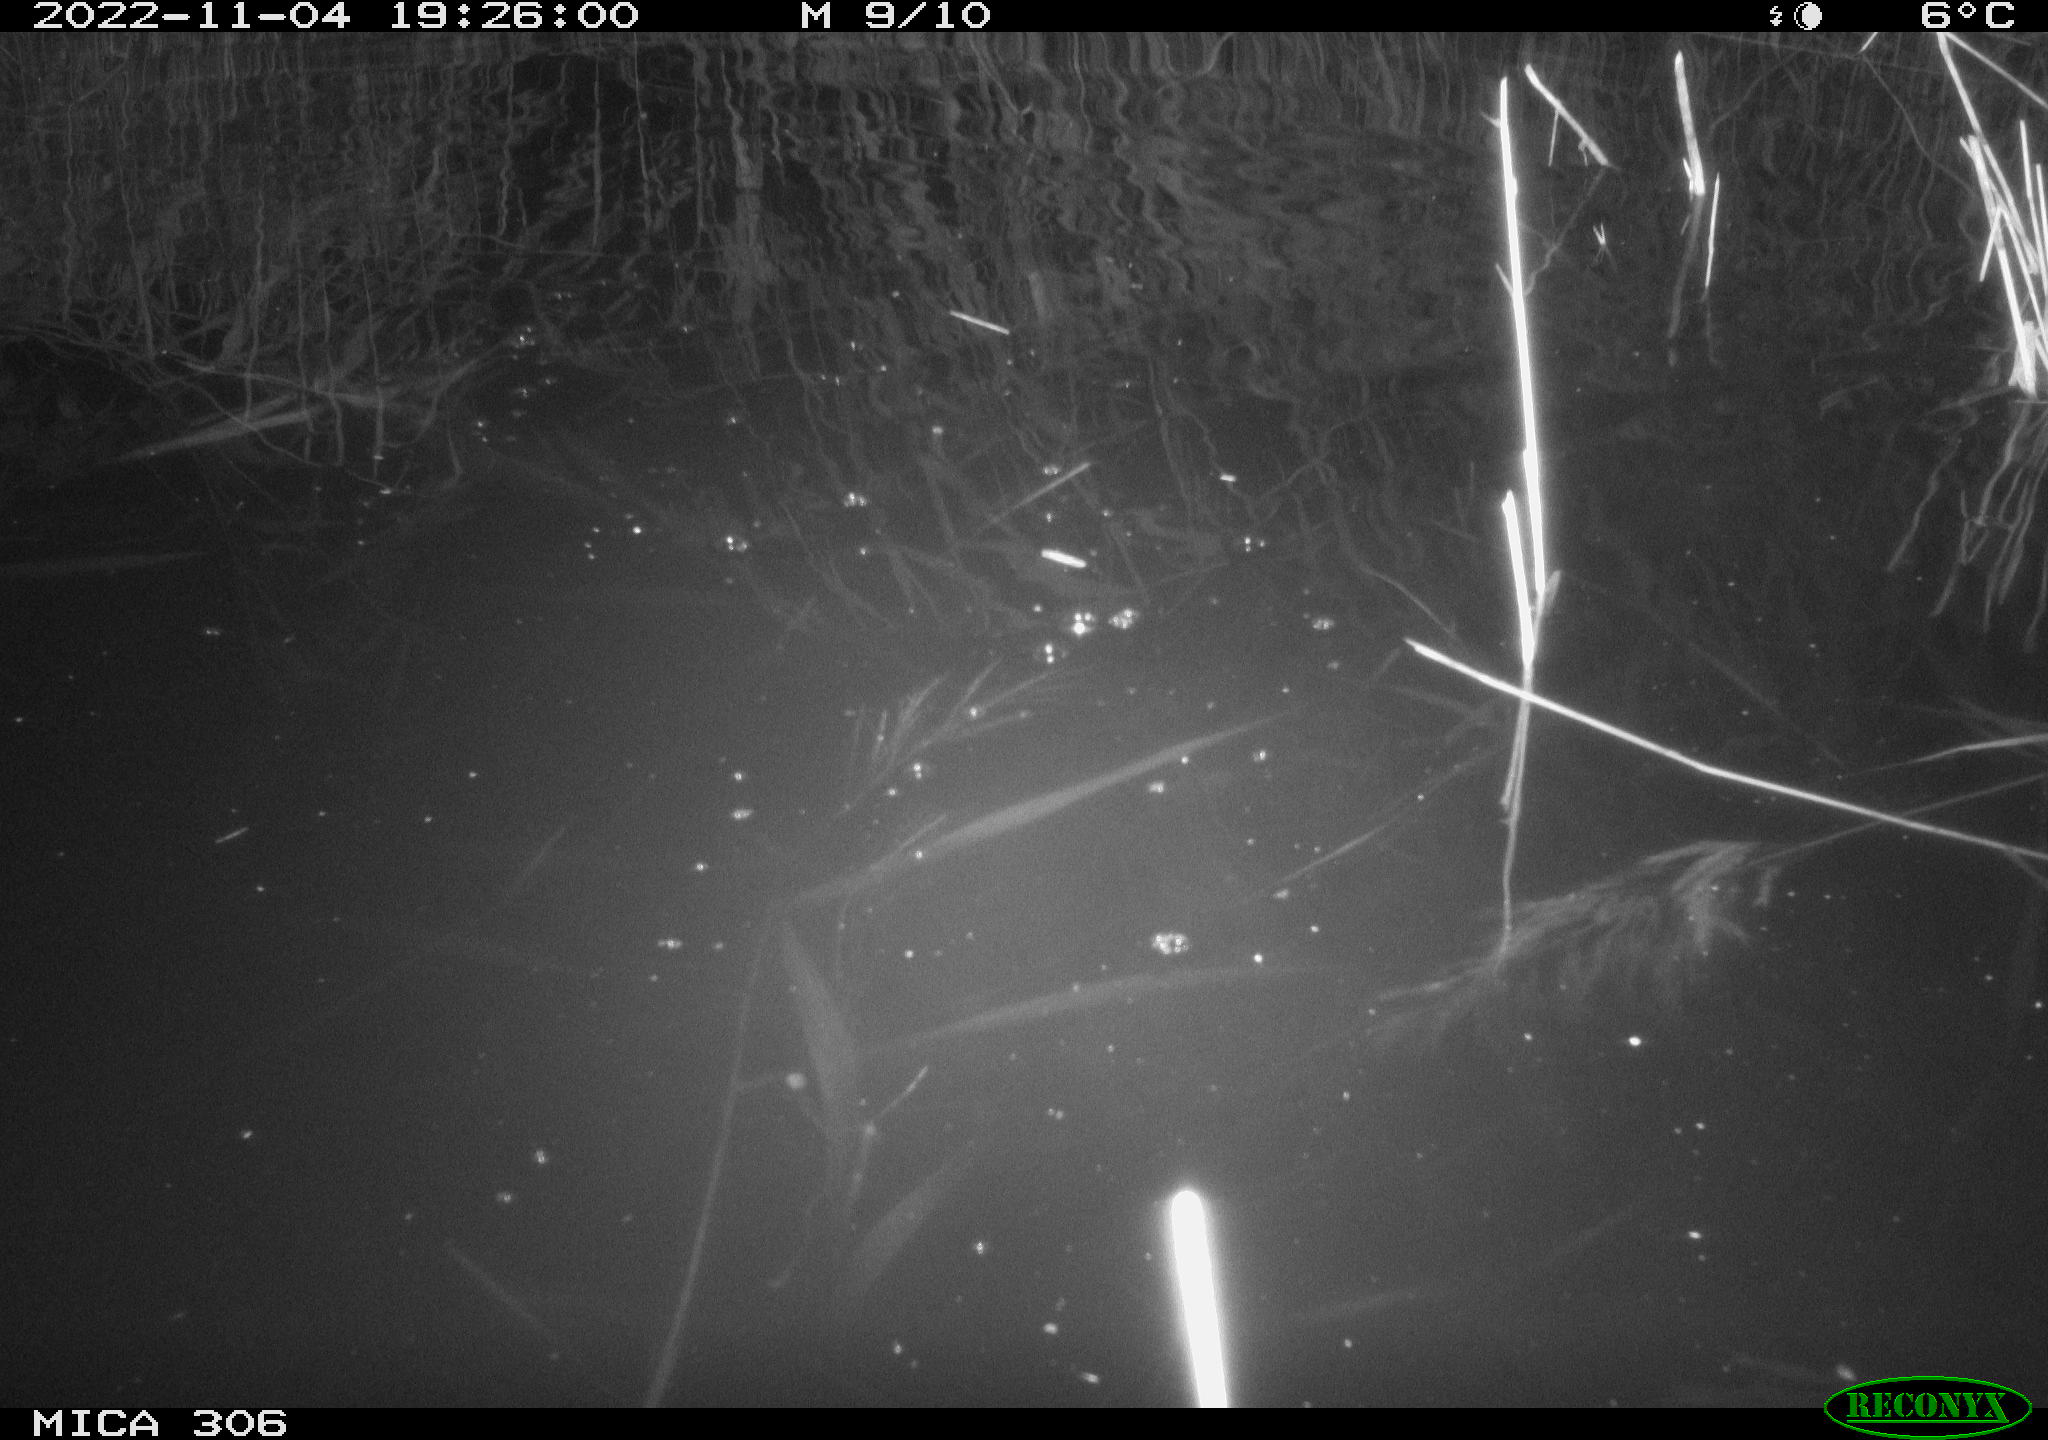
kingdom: Animalia
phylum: Chordata
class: Mammalia
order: Rodentia
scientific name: Rodentia
